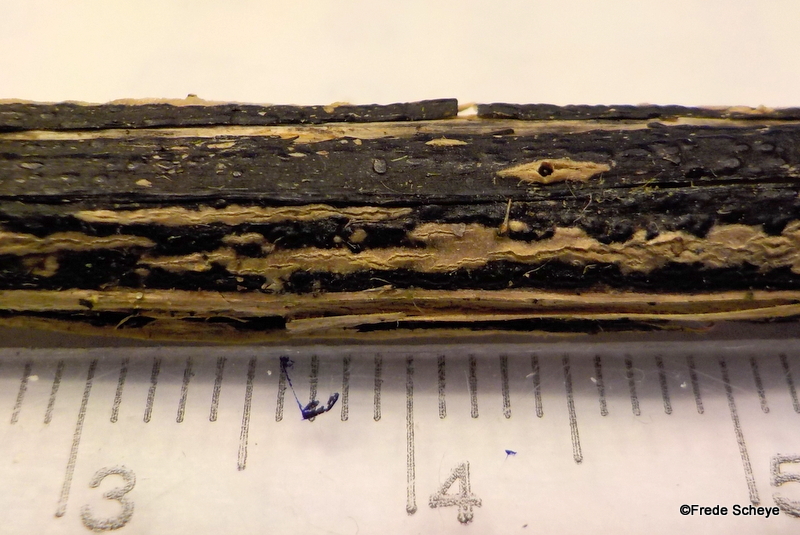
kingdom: Fungi
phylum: Ascomycota
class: Sordariomycetes
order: Diaporthales
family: Diaporthaceae
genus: Diaporthopsis
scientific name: Diaporthopsis urticae
